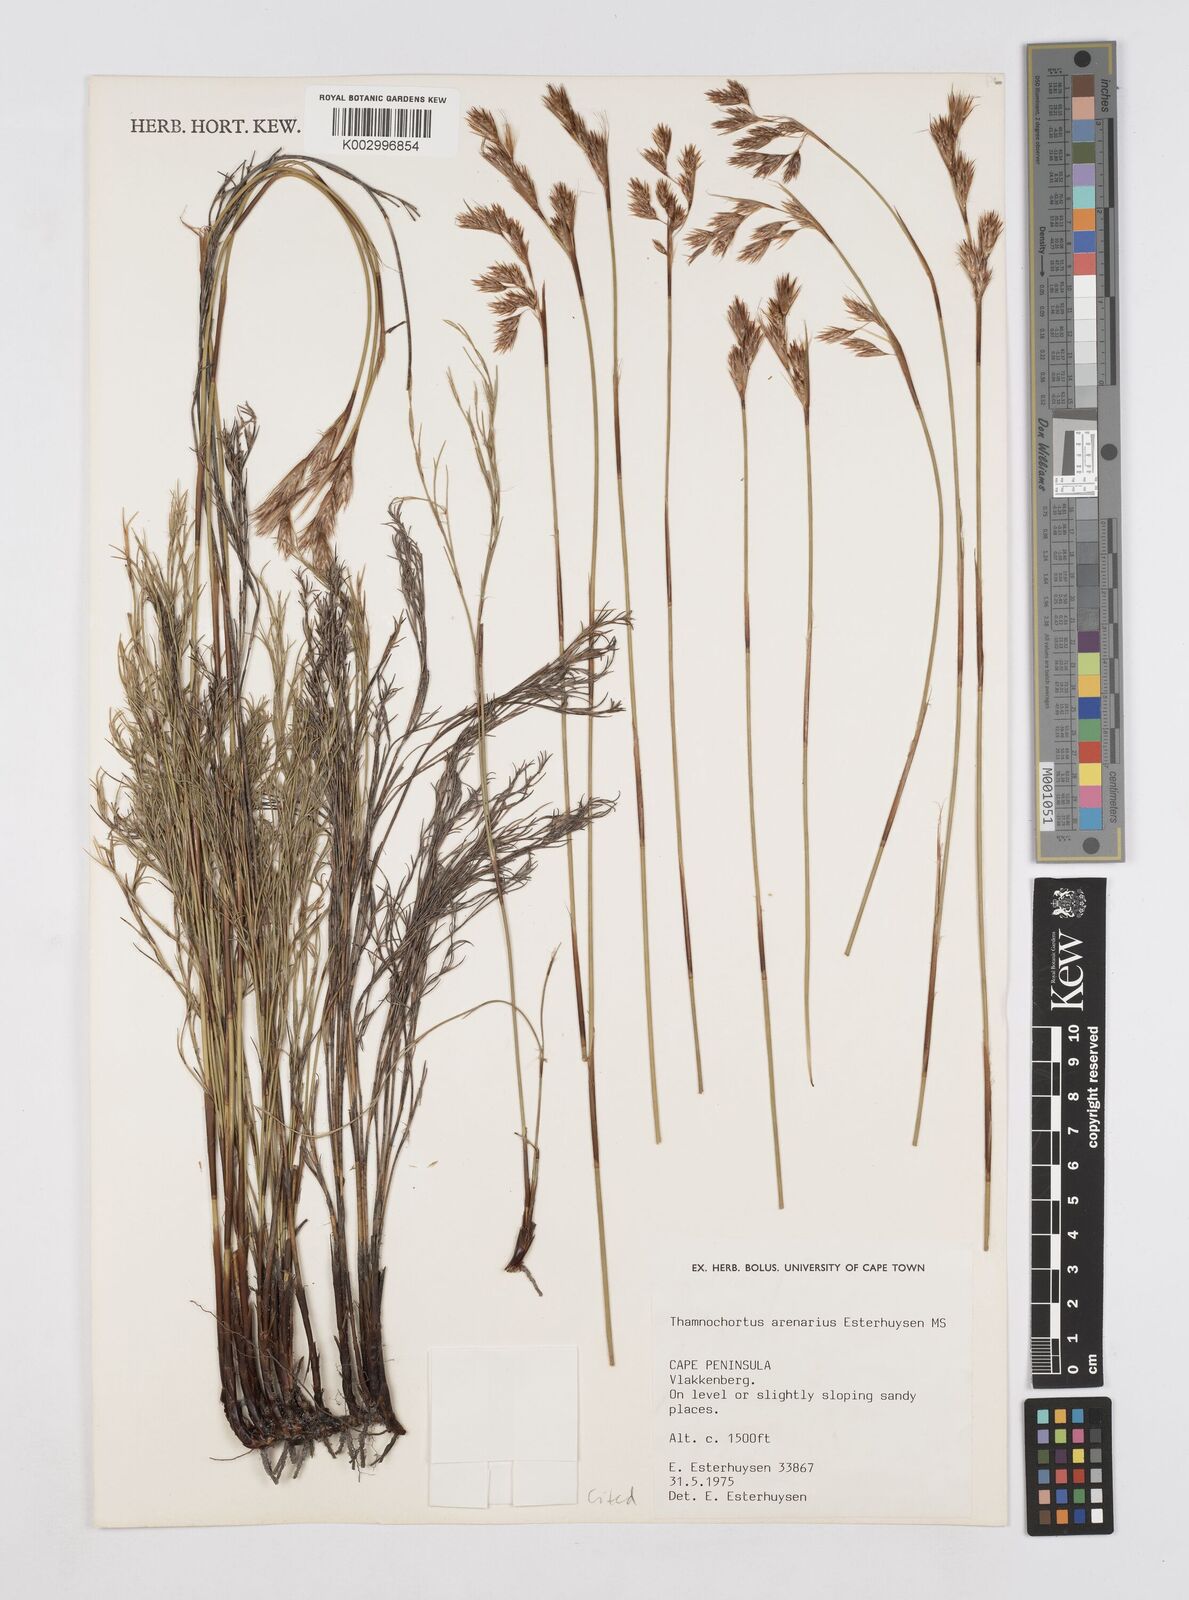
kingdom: Plantae
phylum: Tracheophyta
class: Liliopsida
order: Poales
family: Restionaceae
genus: Thamnochortus
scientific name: Thamnochortus arenarius
